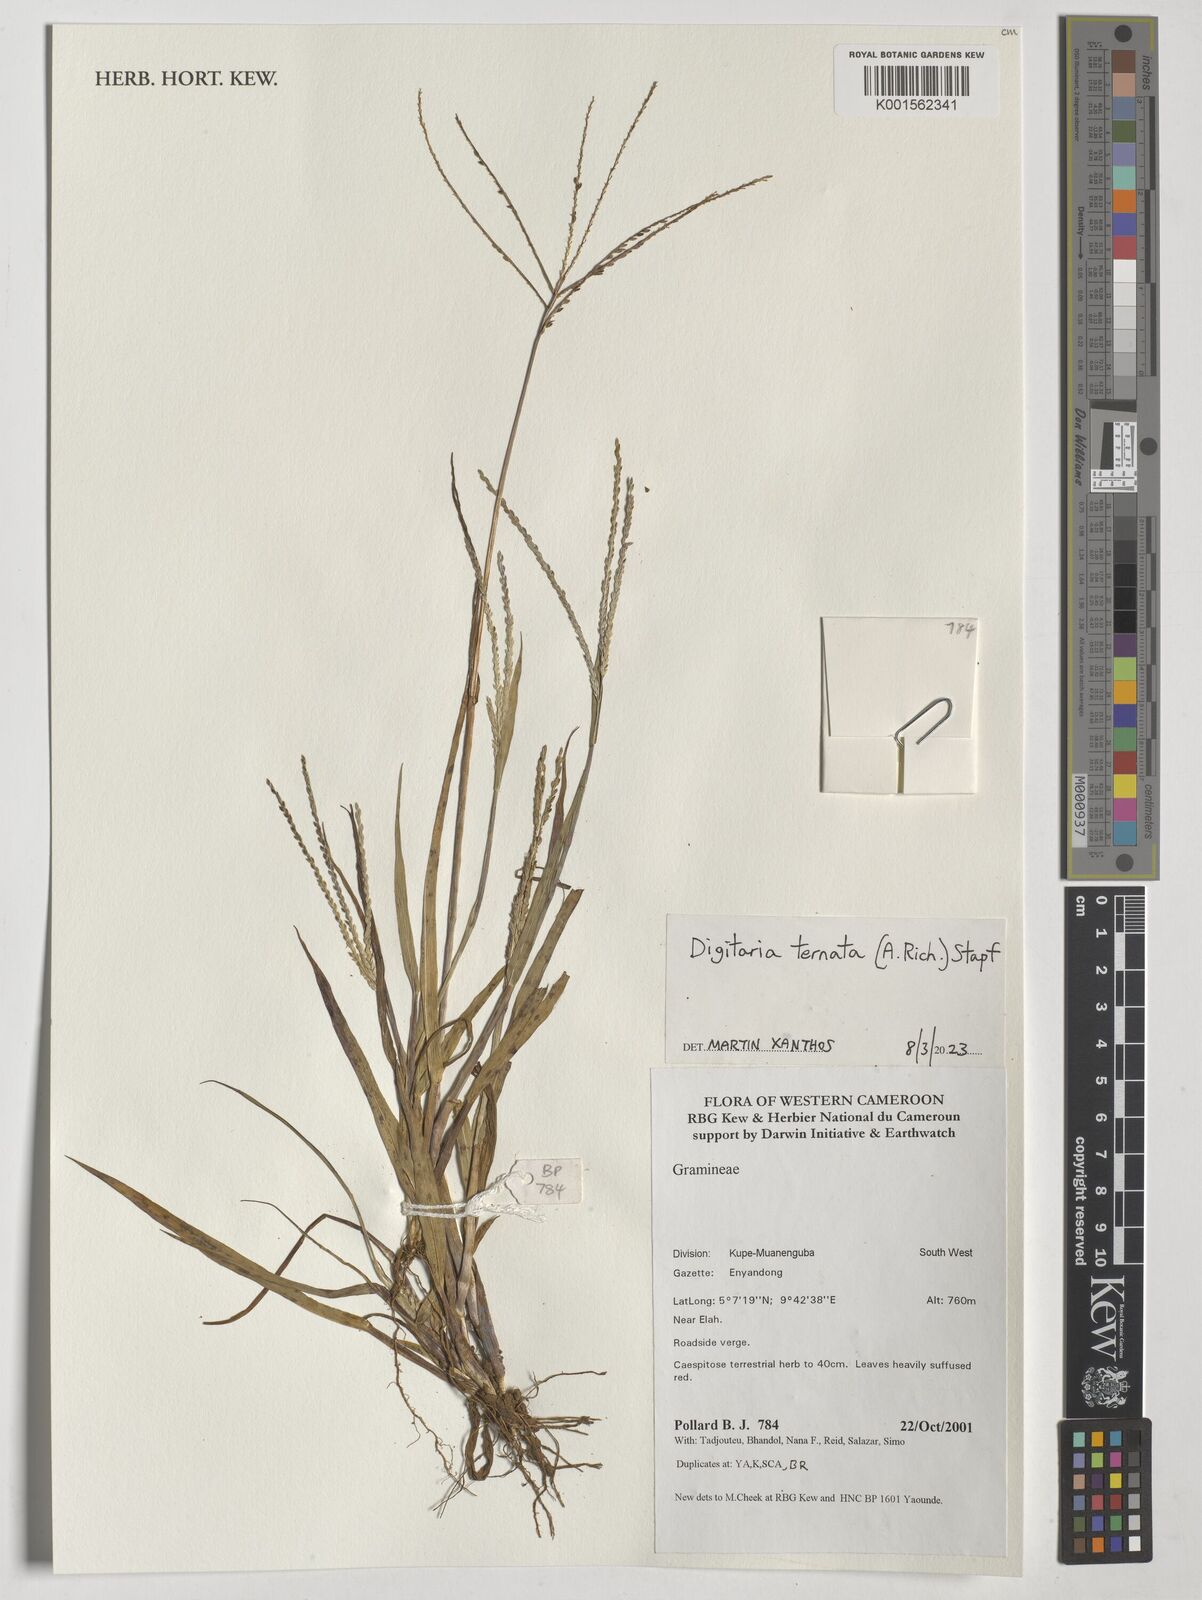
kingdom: Plantae
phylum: Tracheophyta
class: Liliopsida
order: Poales
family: Poaceae
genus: Digitaria
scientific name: Digitaria ternata
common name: Blackseed crabgrass
